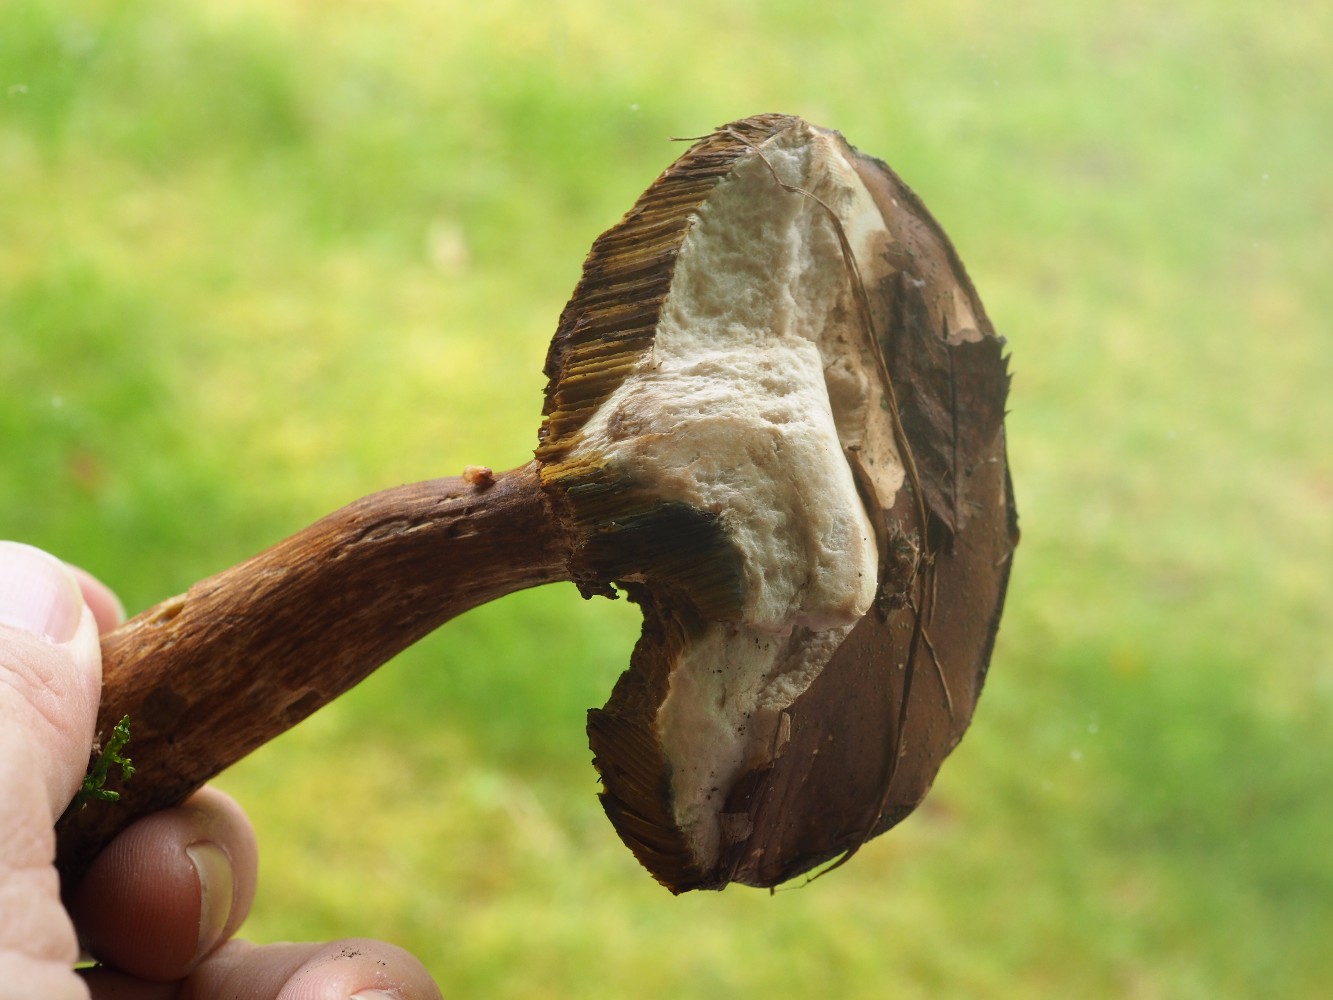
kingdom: Fungi
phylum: Basidiomycota
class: Agaricomycetes
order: Boletales
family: Boletaceae
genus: Imleria
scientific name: Imleria badia
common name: brunstokket rørhat
